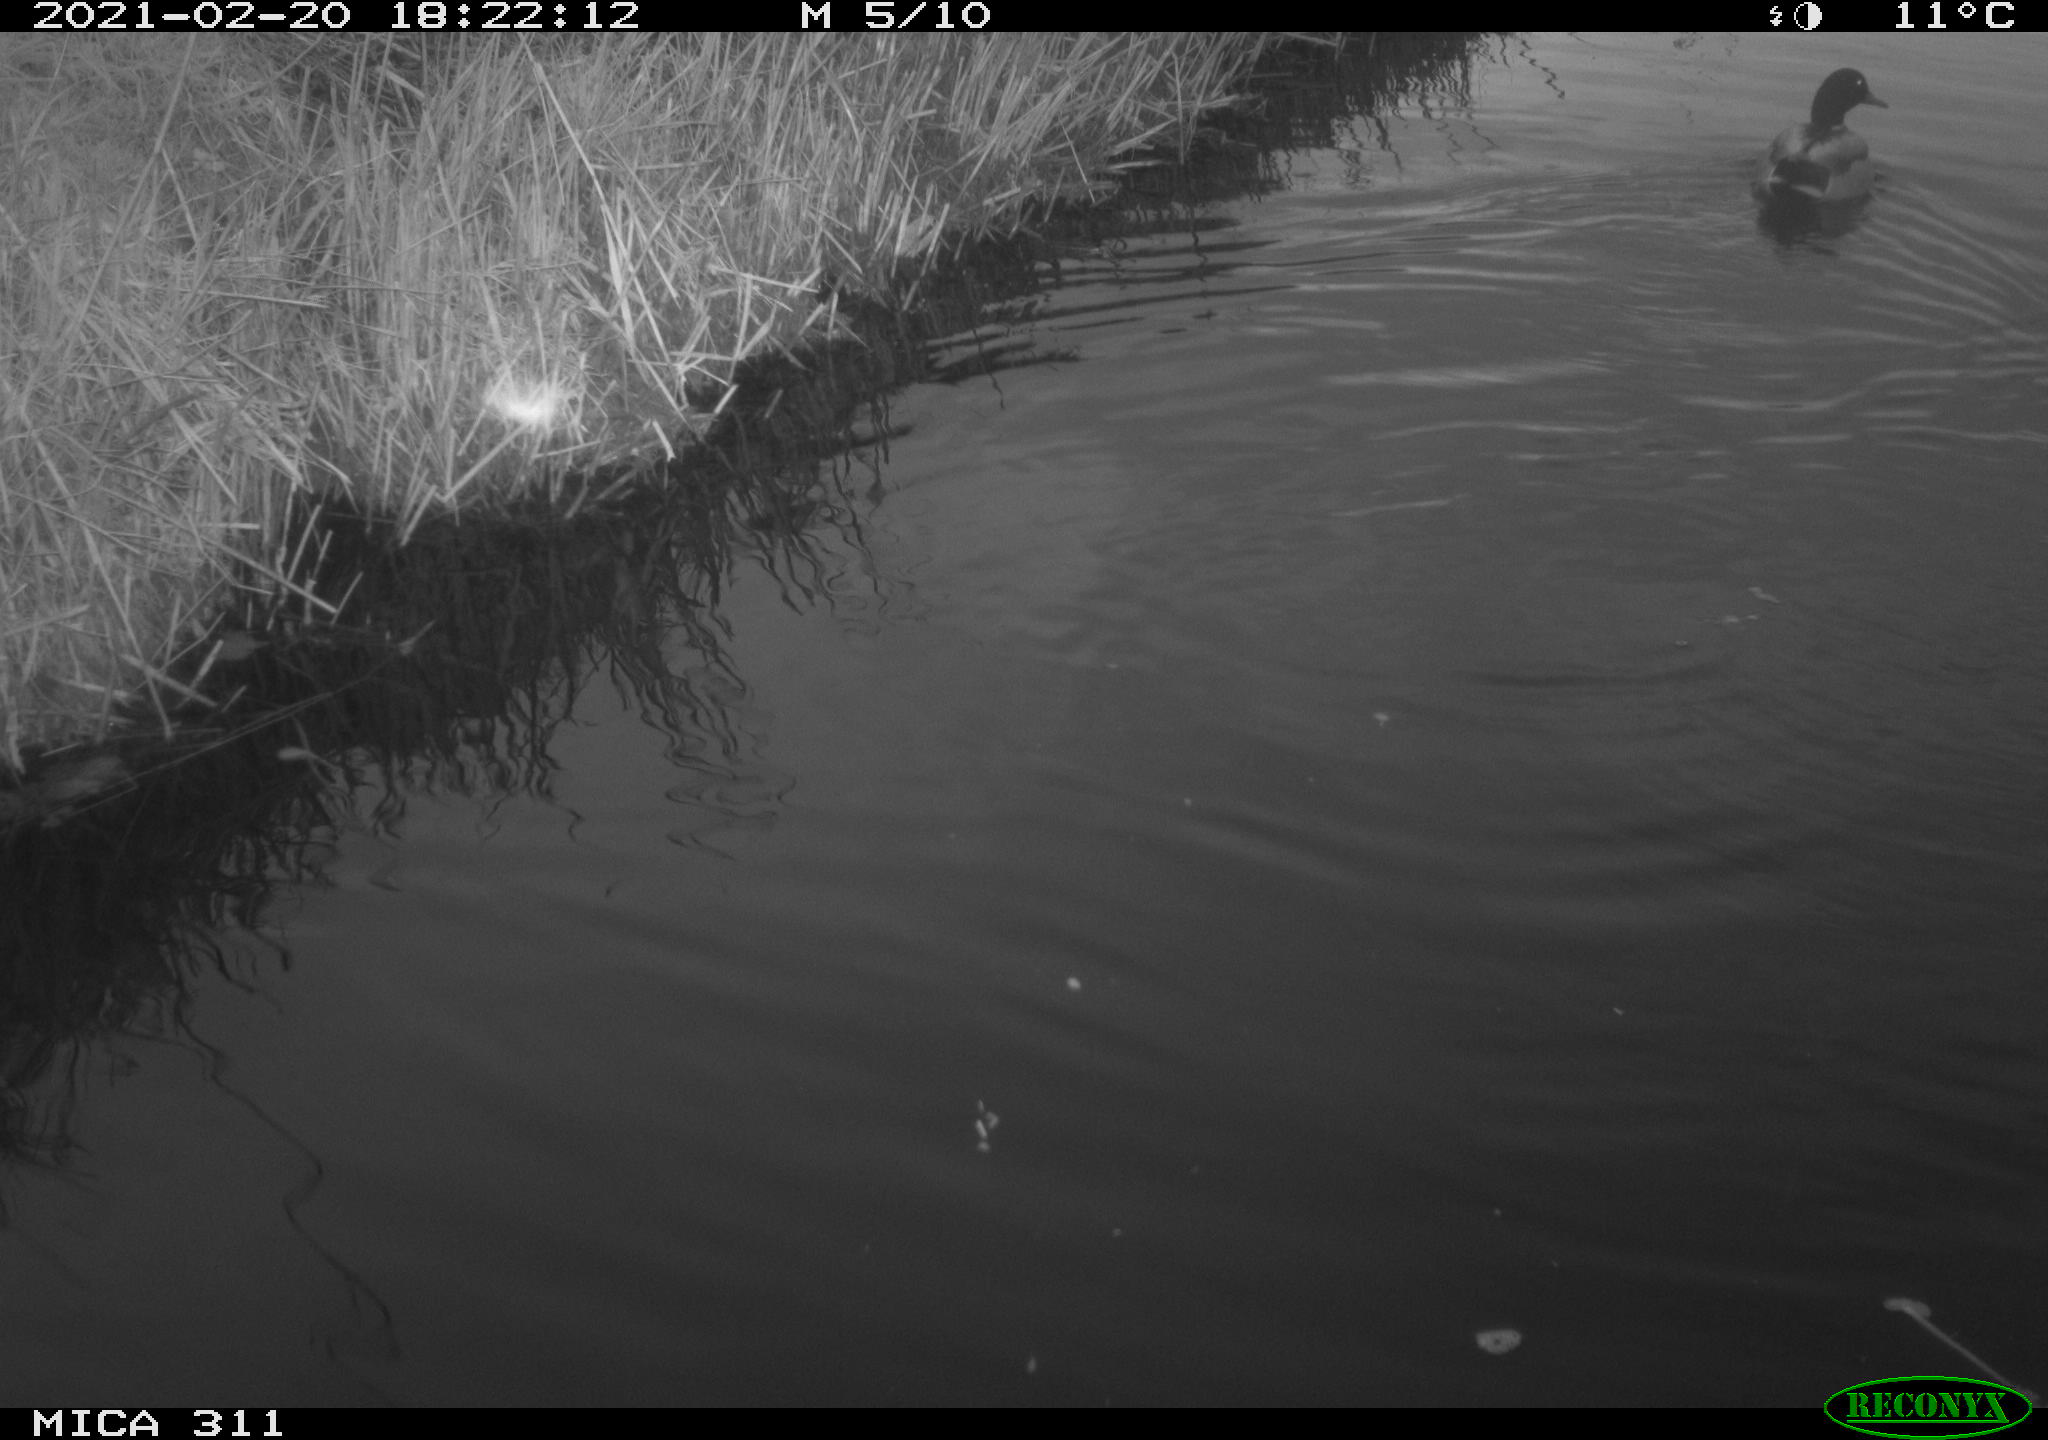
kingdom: Animalia
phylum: Chordata
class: Aves
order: Anseriformes
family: Anatidae
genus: Anas
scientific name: Anas
